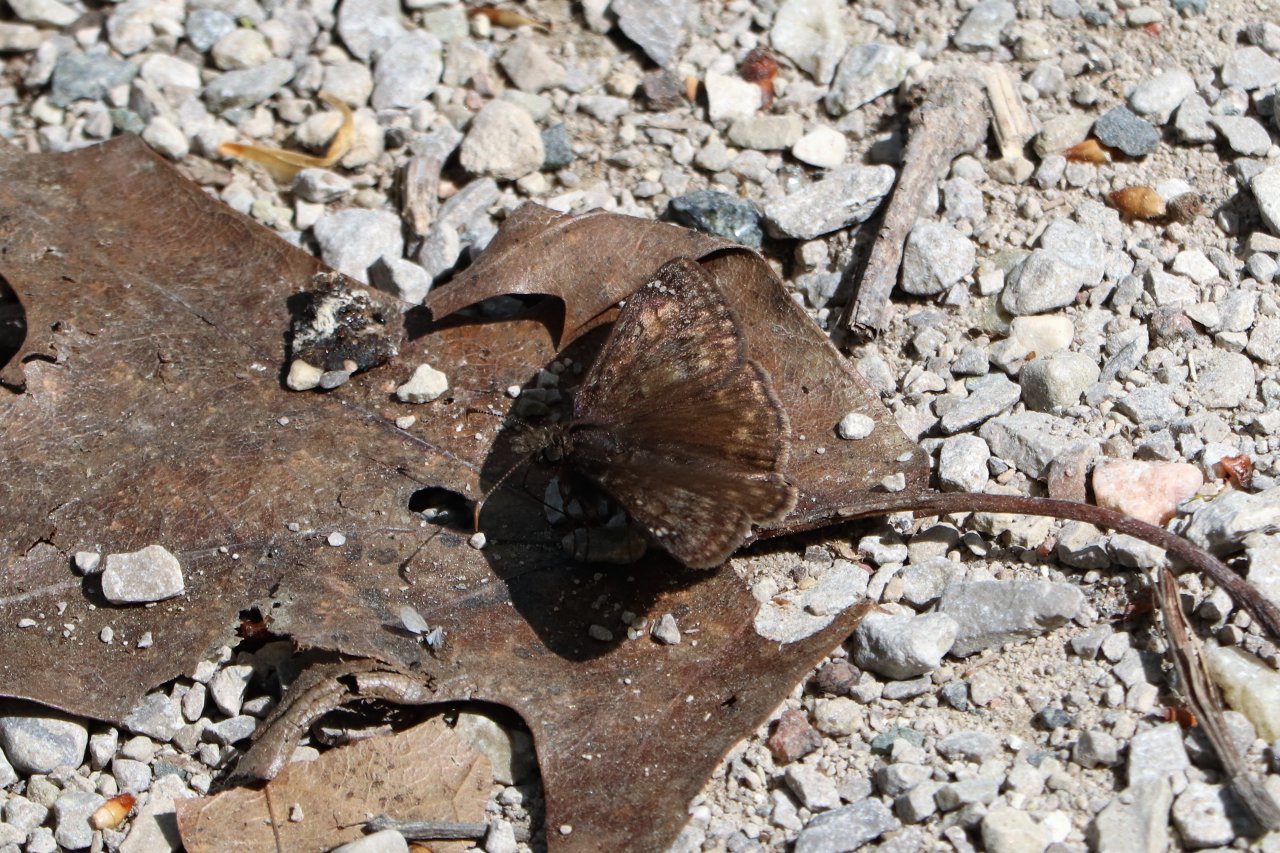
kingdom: Animalia
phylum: Arthropoda
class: Insecta
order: Lepidoptera
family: Hesperiidae
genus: Gesta
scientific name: Gesta
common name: Wild Indigo Duskywing
